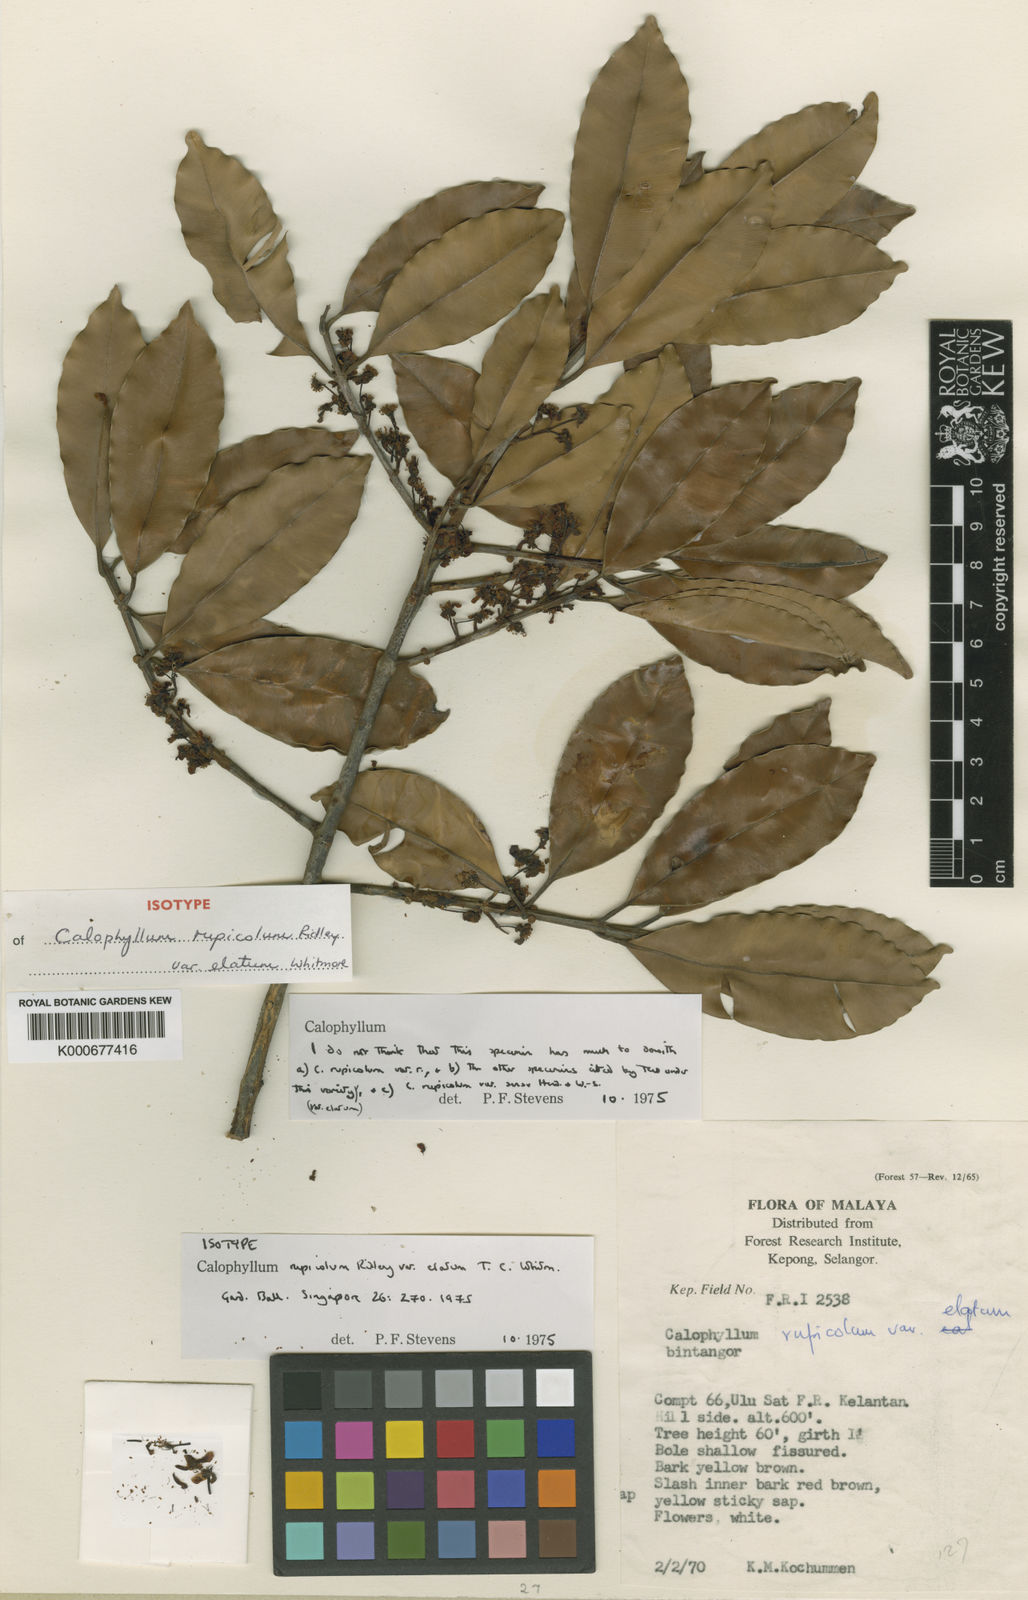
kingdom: Plantae
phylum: Tracheophyta
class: Magnoliopsida
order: Malpighiales
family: Calophyllaceae
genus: Calophyllum
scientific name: Calophyllum tetrapterum
